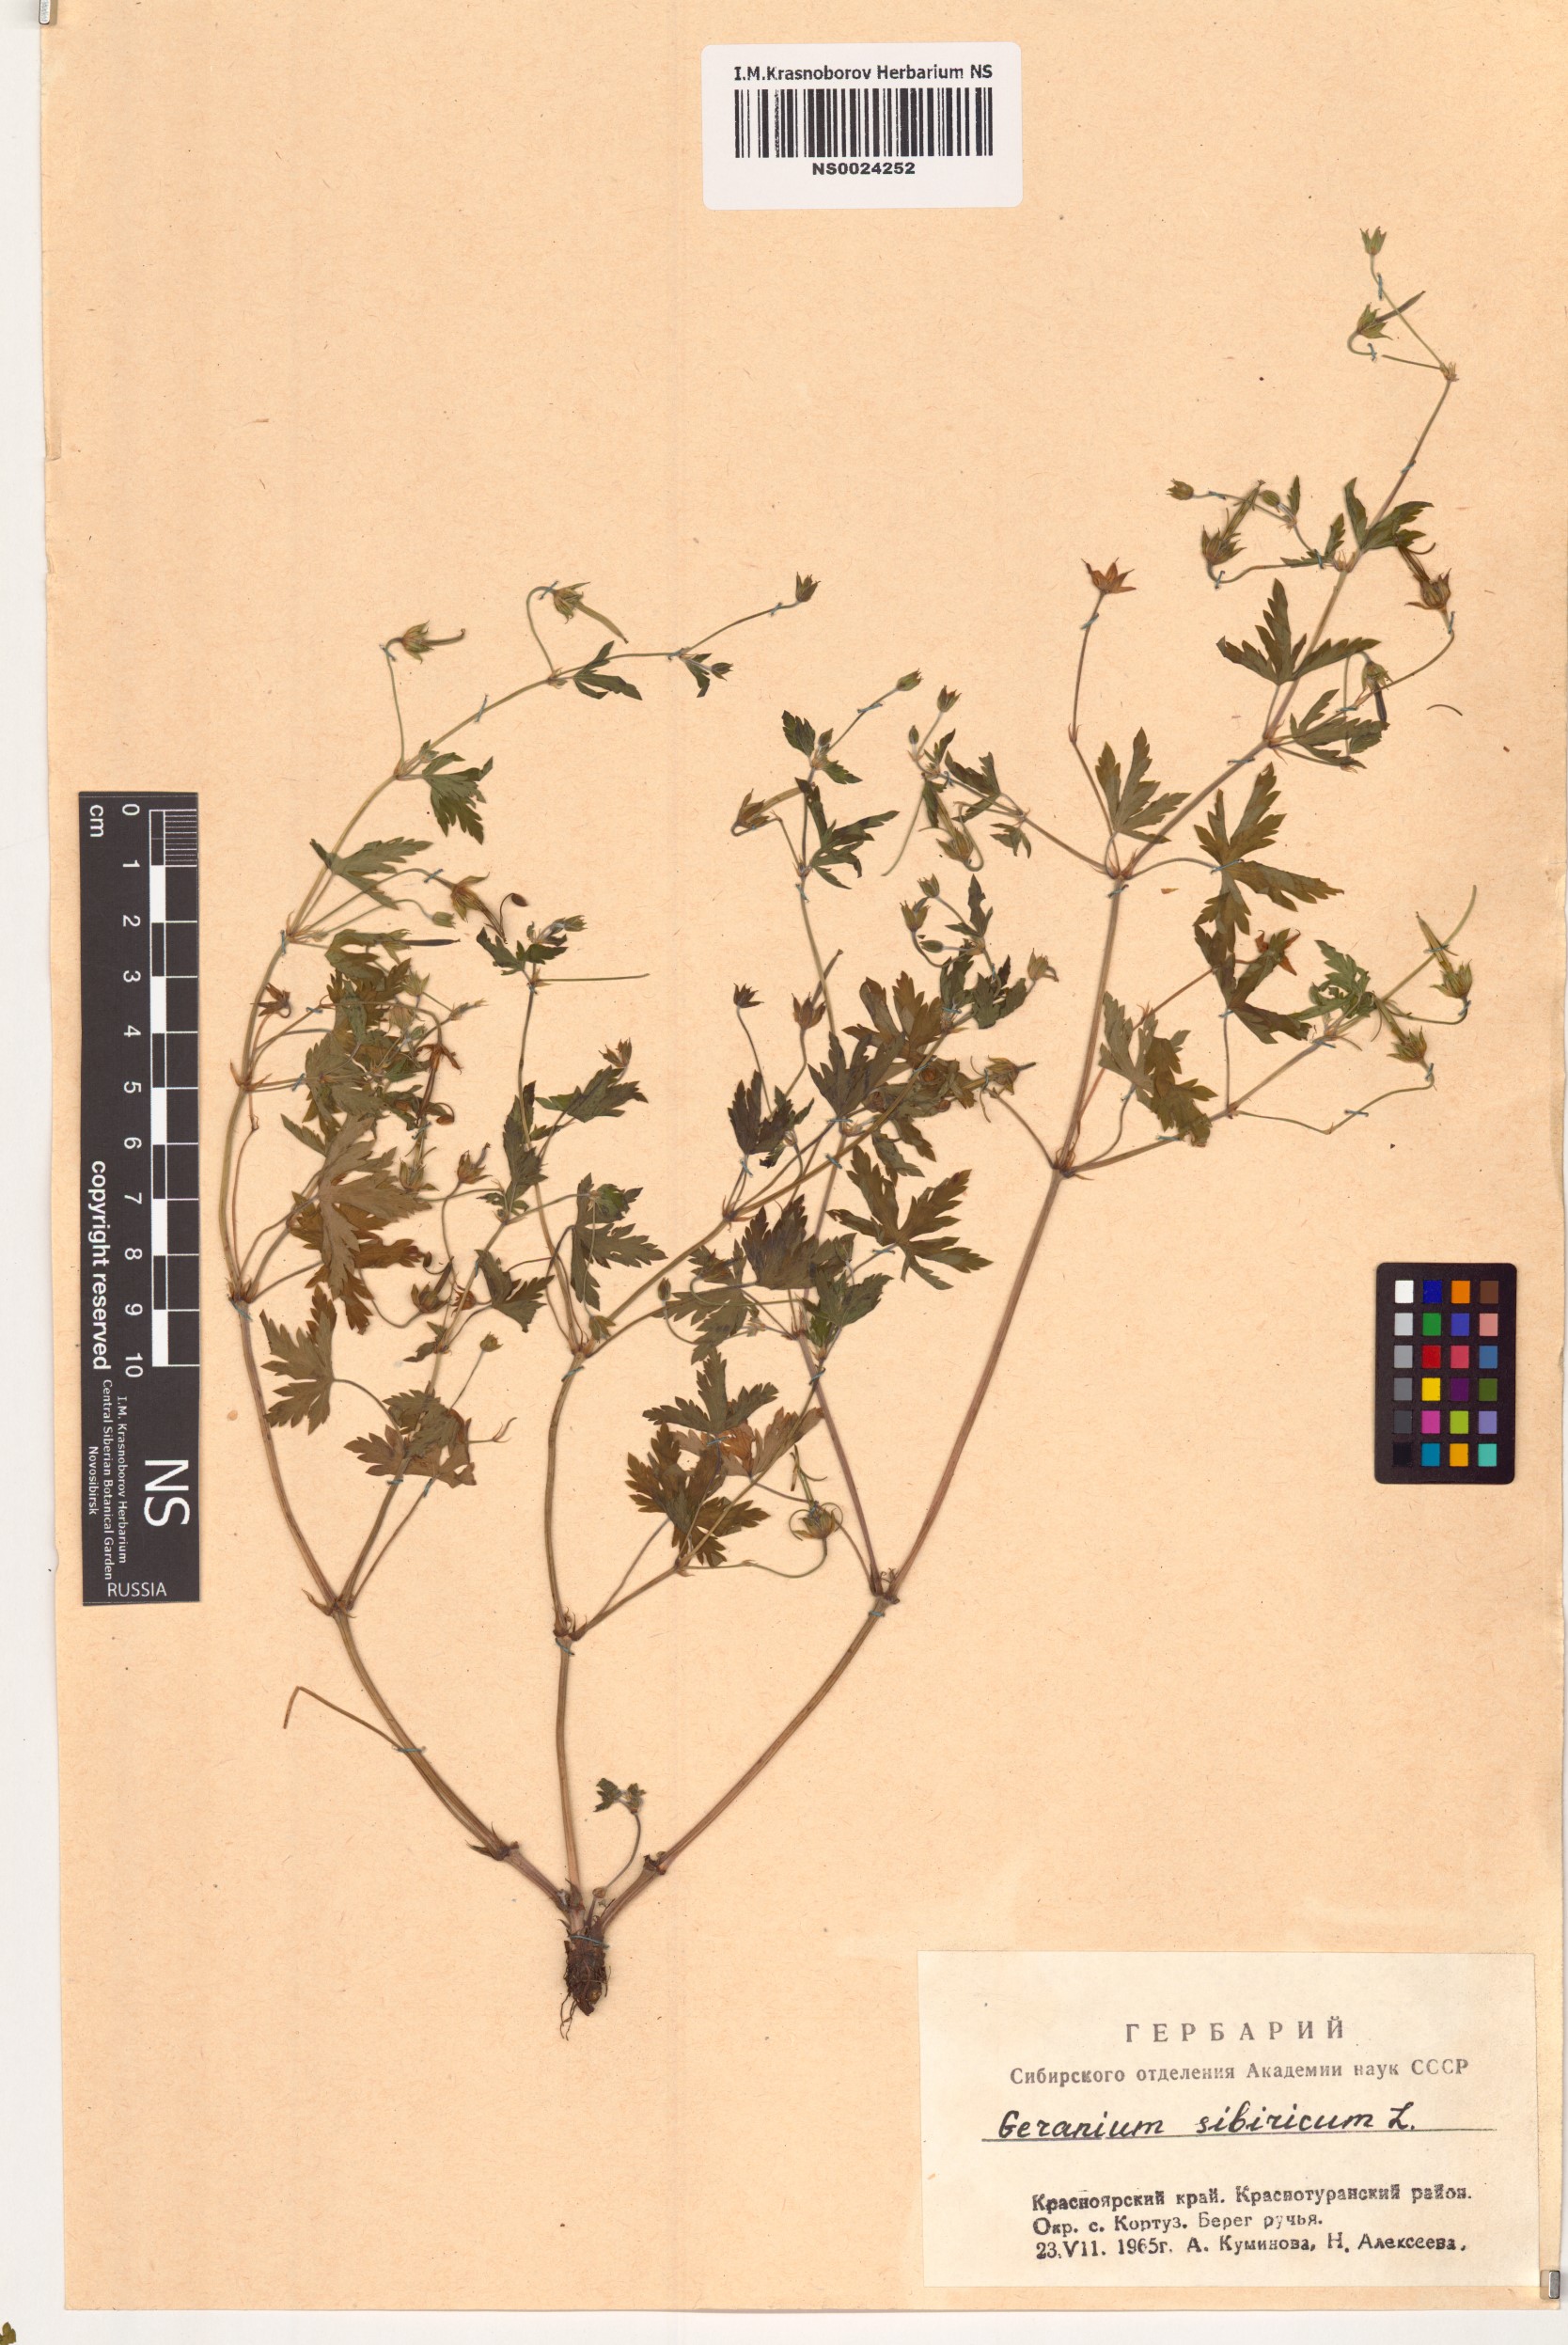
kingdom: Plantae
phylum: Tracheophyta
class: Magnoliopsida
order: Geraniales
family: Geraniaceae
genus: Geranium
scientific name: Geranium sibiricum
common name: Siberian crane's-bill
